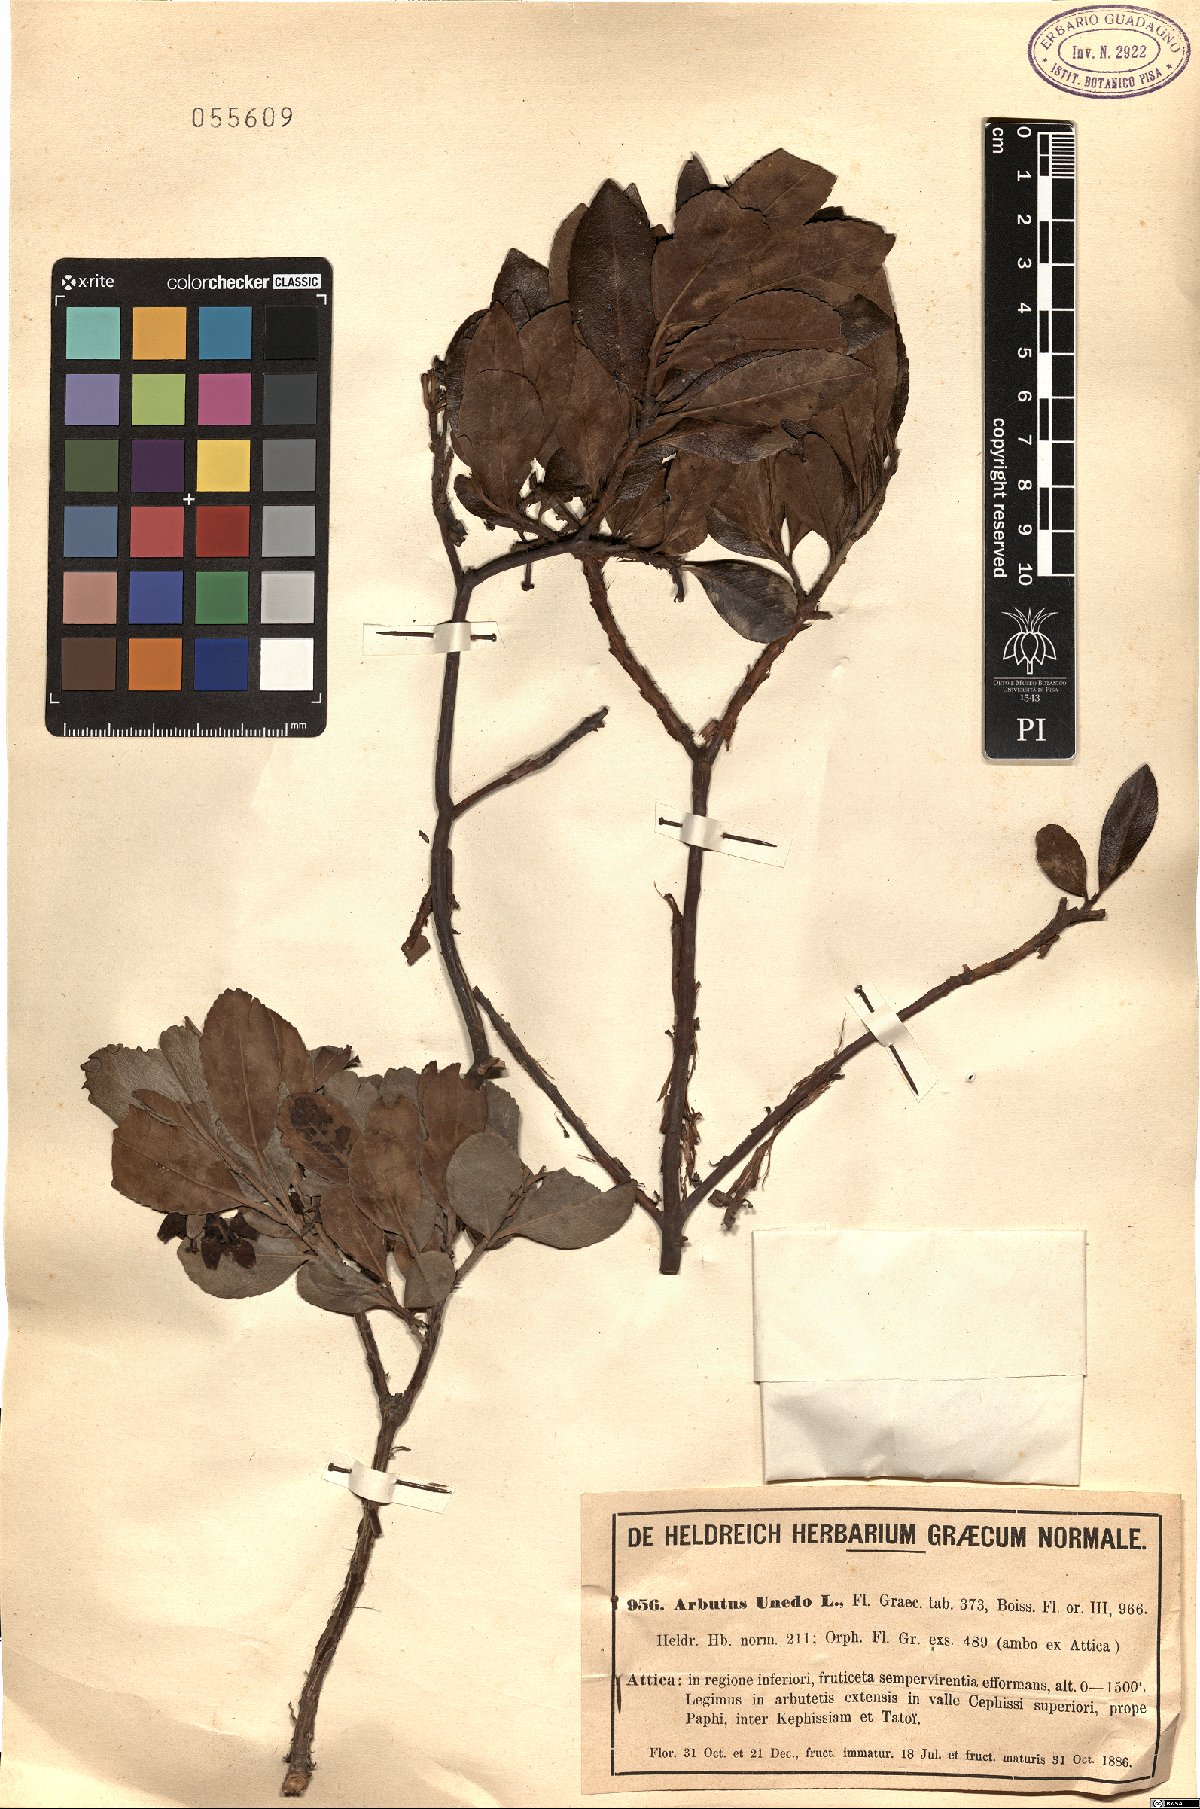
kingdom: Plantae
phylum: Tracheophyta
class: Magnoliopsida
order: Ericales
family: Ericaceae
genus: Arbutus
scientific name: Arbutus unedo
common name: Strawberry-tree
